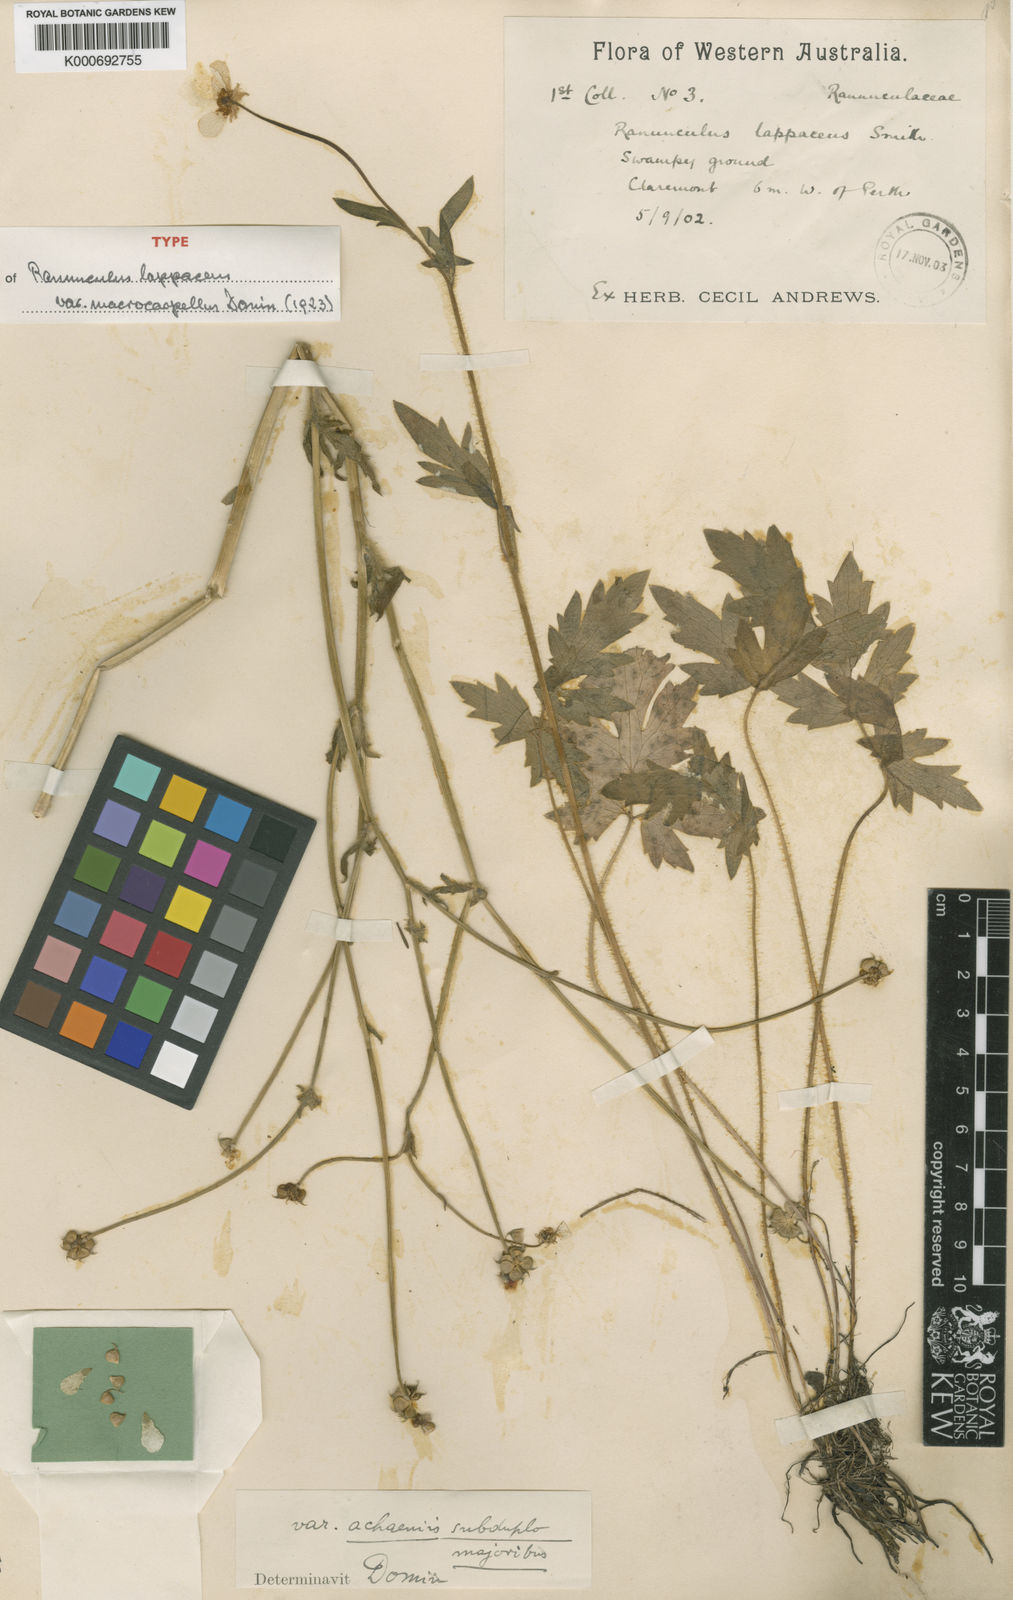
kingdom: Plantae
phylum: Tracheophyta
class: Magnoliopsida
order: Ranunculales
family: Ranunculaceae
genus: Ranunculus
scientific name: Ranunculus lappaceus
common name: Australian buttercup
